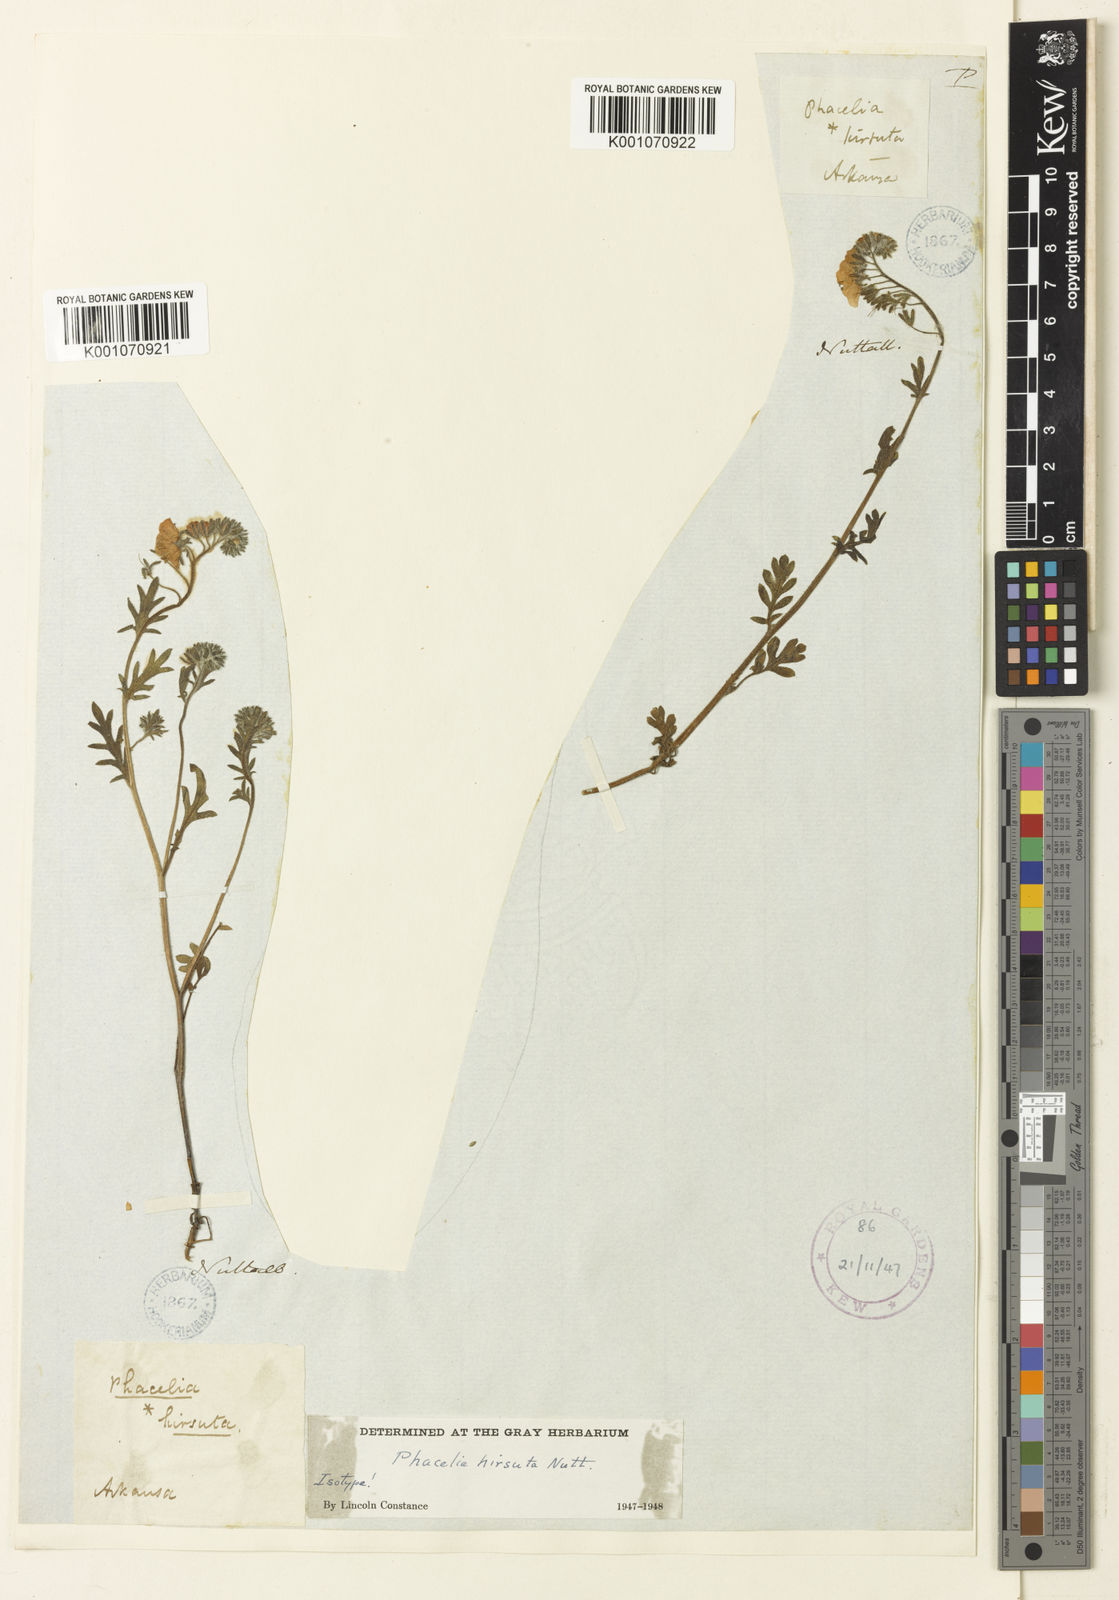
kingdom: Plantae
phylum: Tracheophyta
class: Magnoliopsida
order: Boraginales
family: Hydrophyllaceae
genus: Phacelia
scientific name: Phacelia hirsuta
